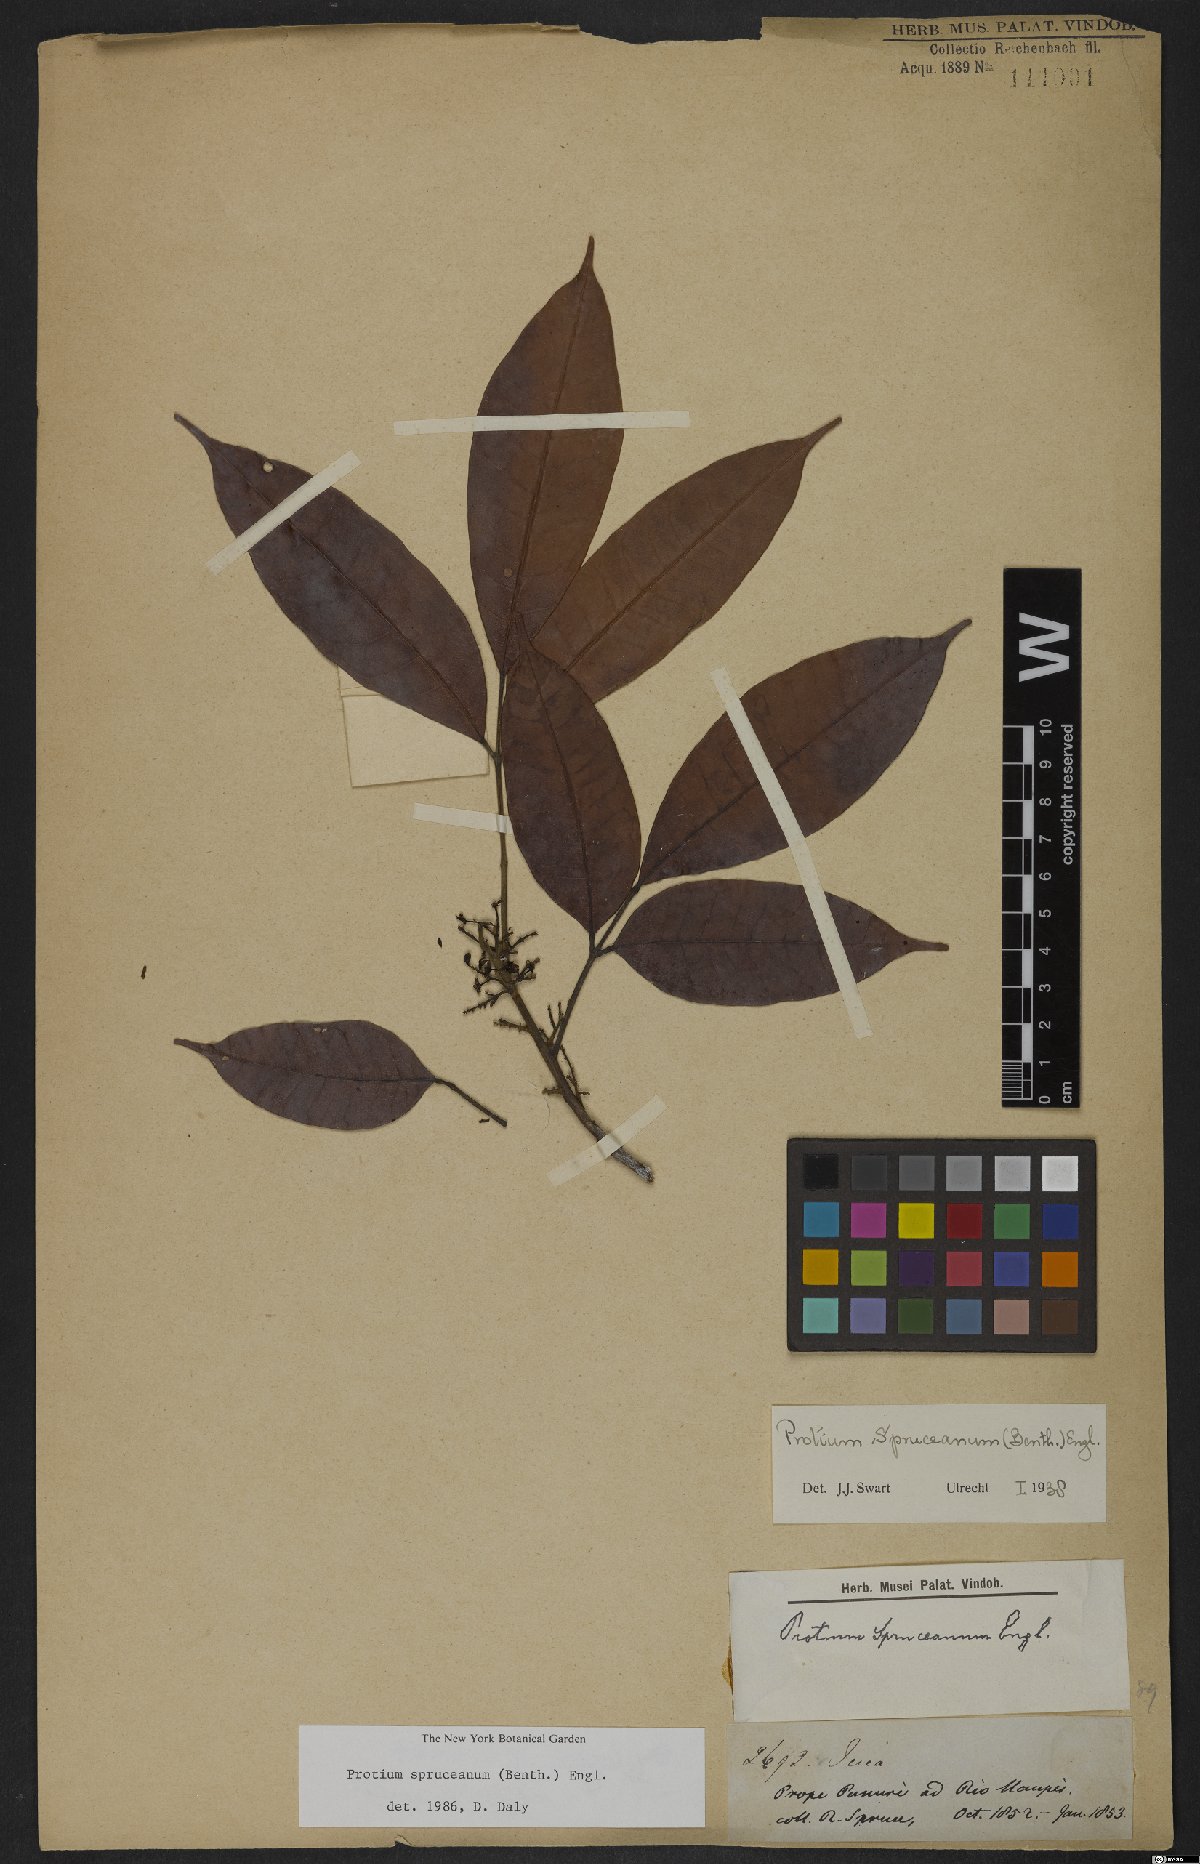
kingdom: Plantae
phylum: Tracheophyta
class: Magnoliopsida
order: Sapindales
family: Burseraceae
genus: Protium
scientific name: Protium spruceanum
